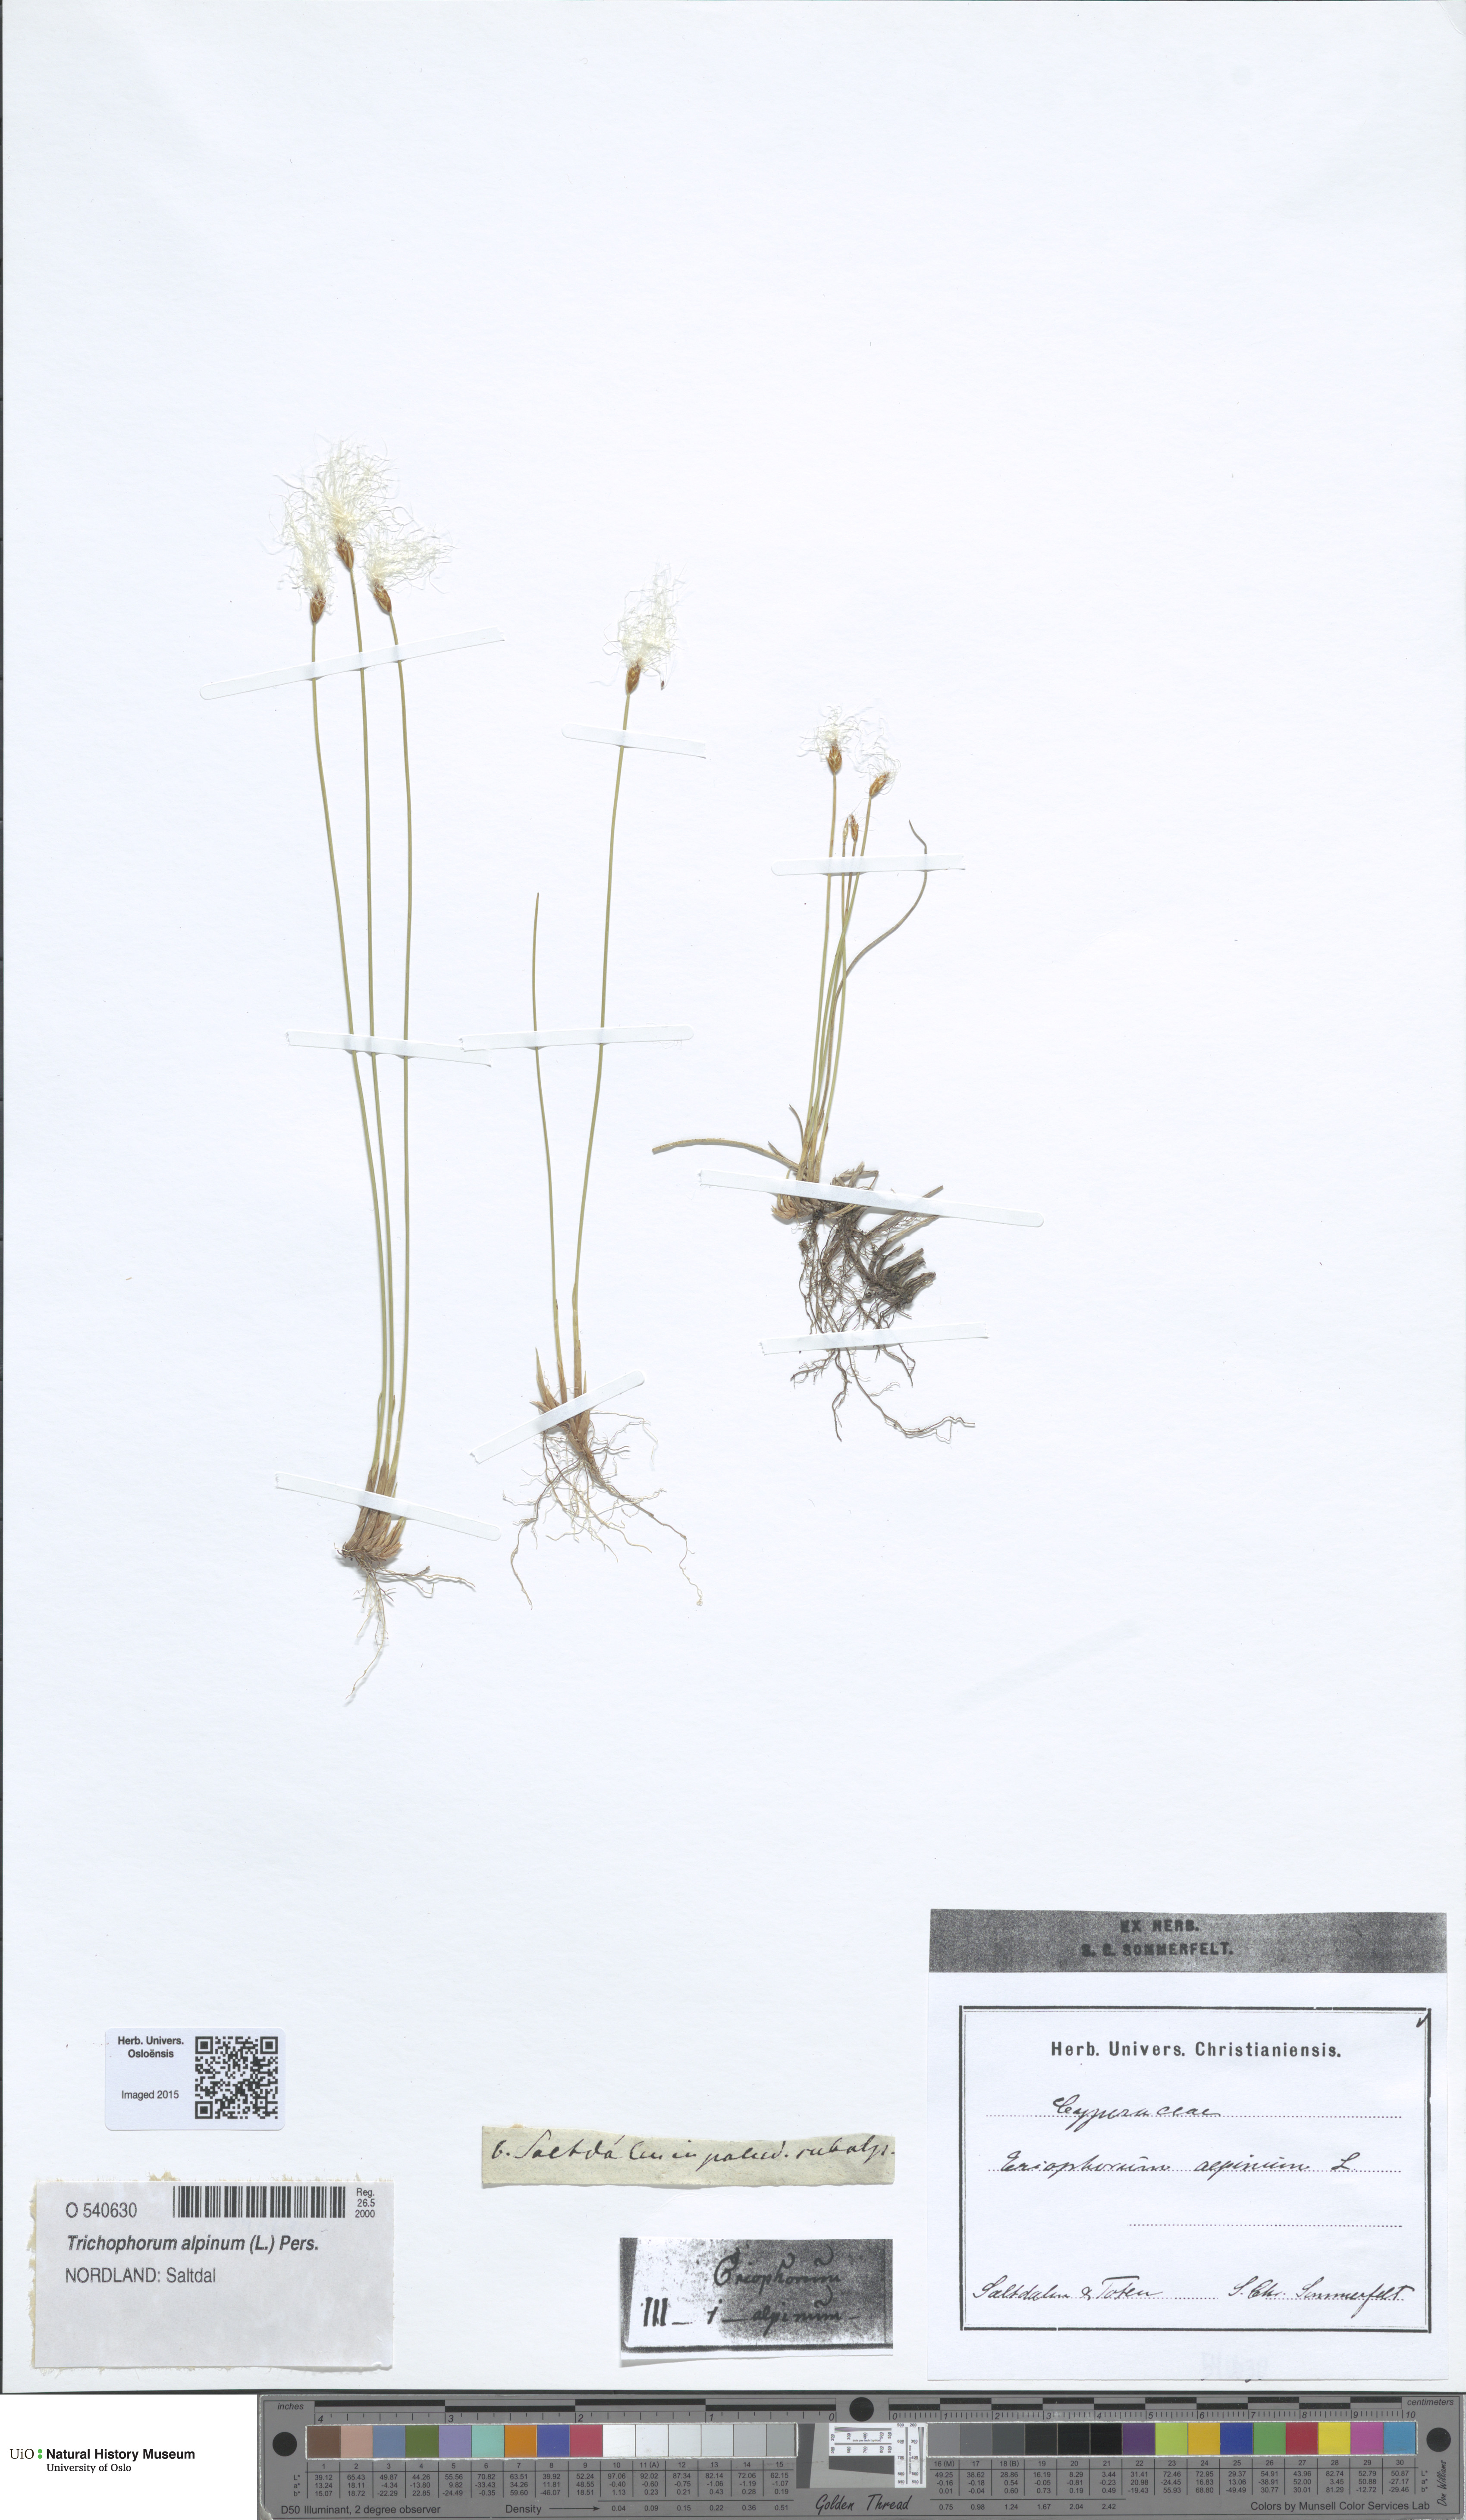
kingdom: Plantae
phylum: Tracheophyta
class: Liliopsida
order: Poales
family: Cyperaceae
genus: Trichophorum
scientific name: Trichophorum alpinum
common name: Alpine bulrush
